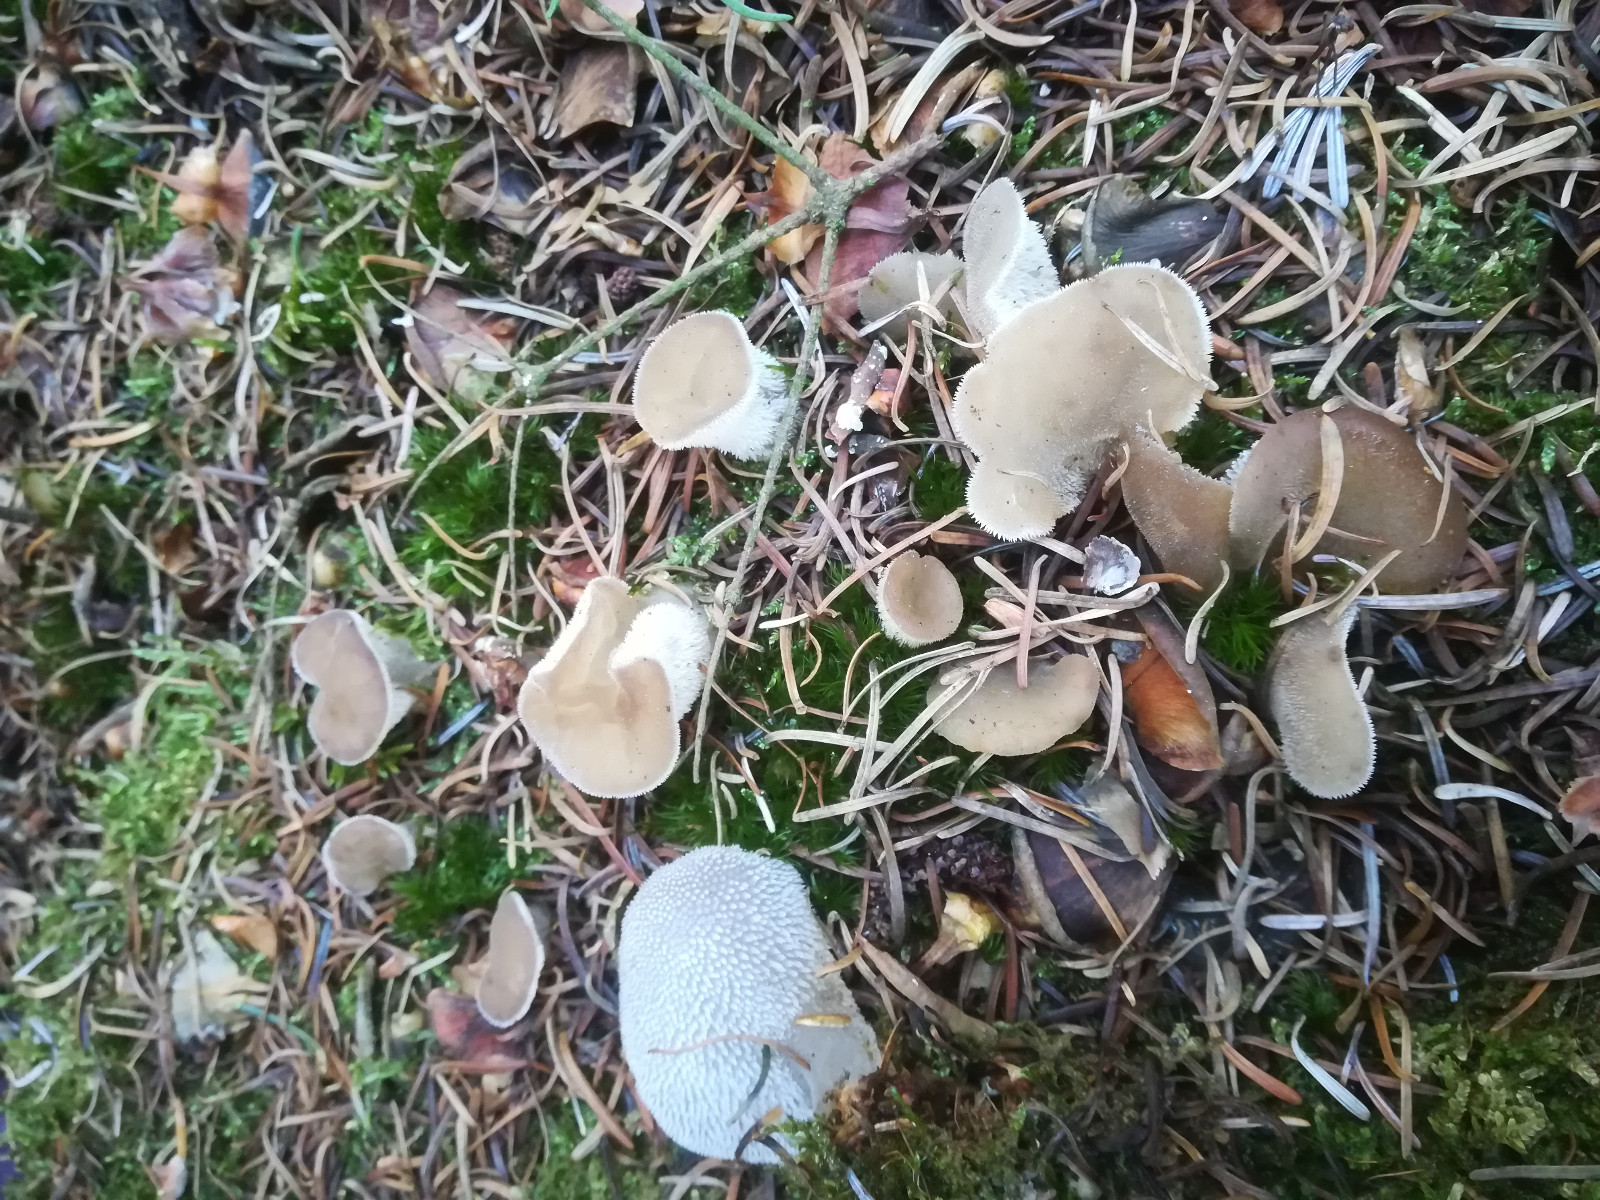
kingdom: Fungi
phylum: Basidiomycota
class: Agaricomycetes
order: Auriculariales
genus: Pseudohydnum
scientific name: Pseudohydnum gelatinosum
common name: bævretand
